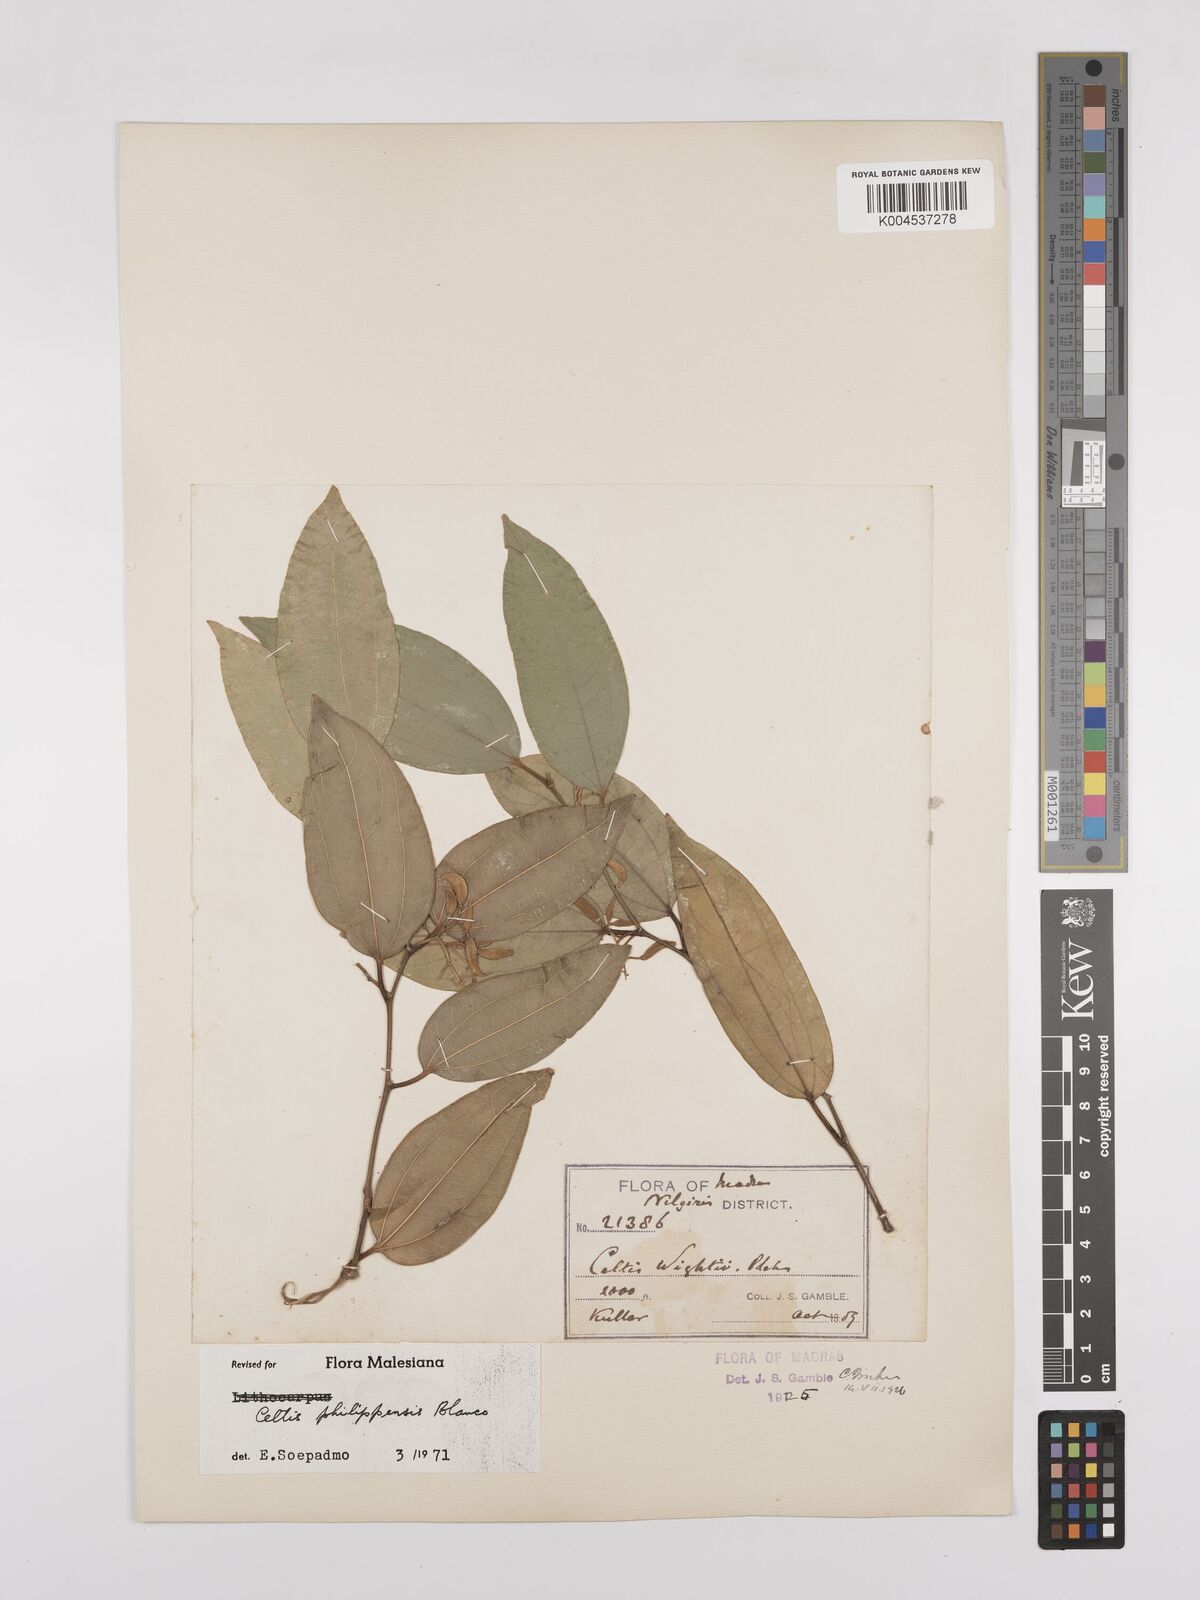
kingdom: Plantae
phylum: Tracheophyta
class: Magnoliopsida
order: Rosales
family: Cannabaceae
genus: Celtis
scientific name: Celtis philippensis
